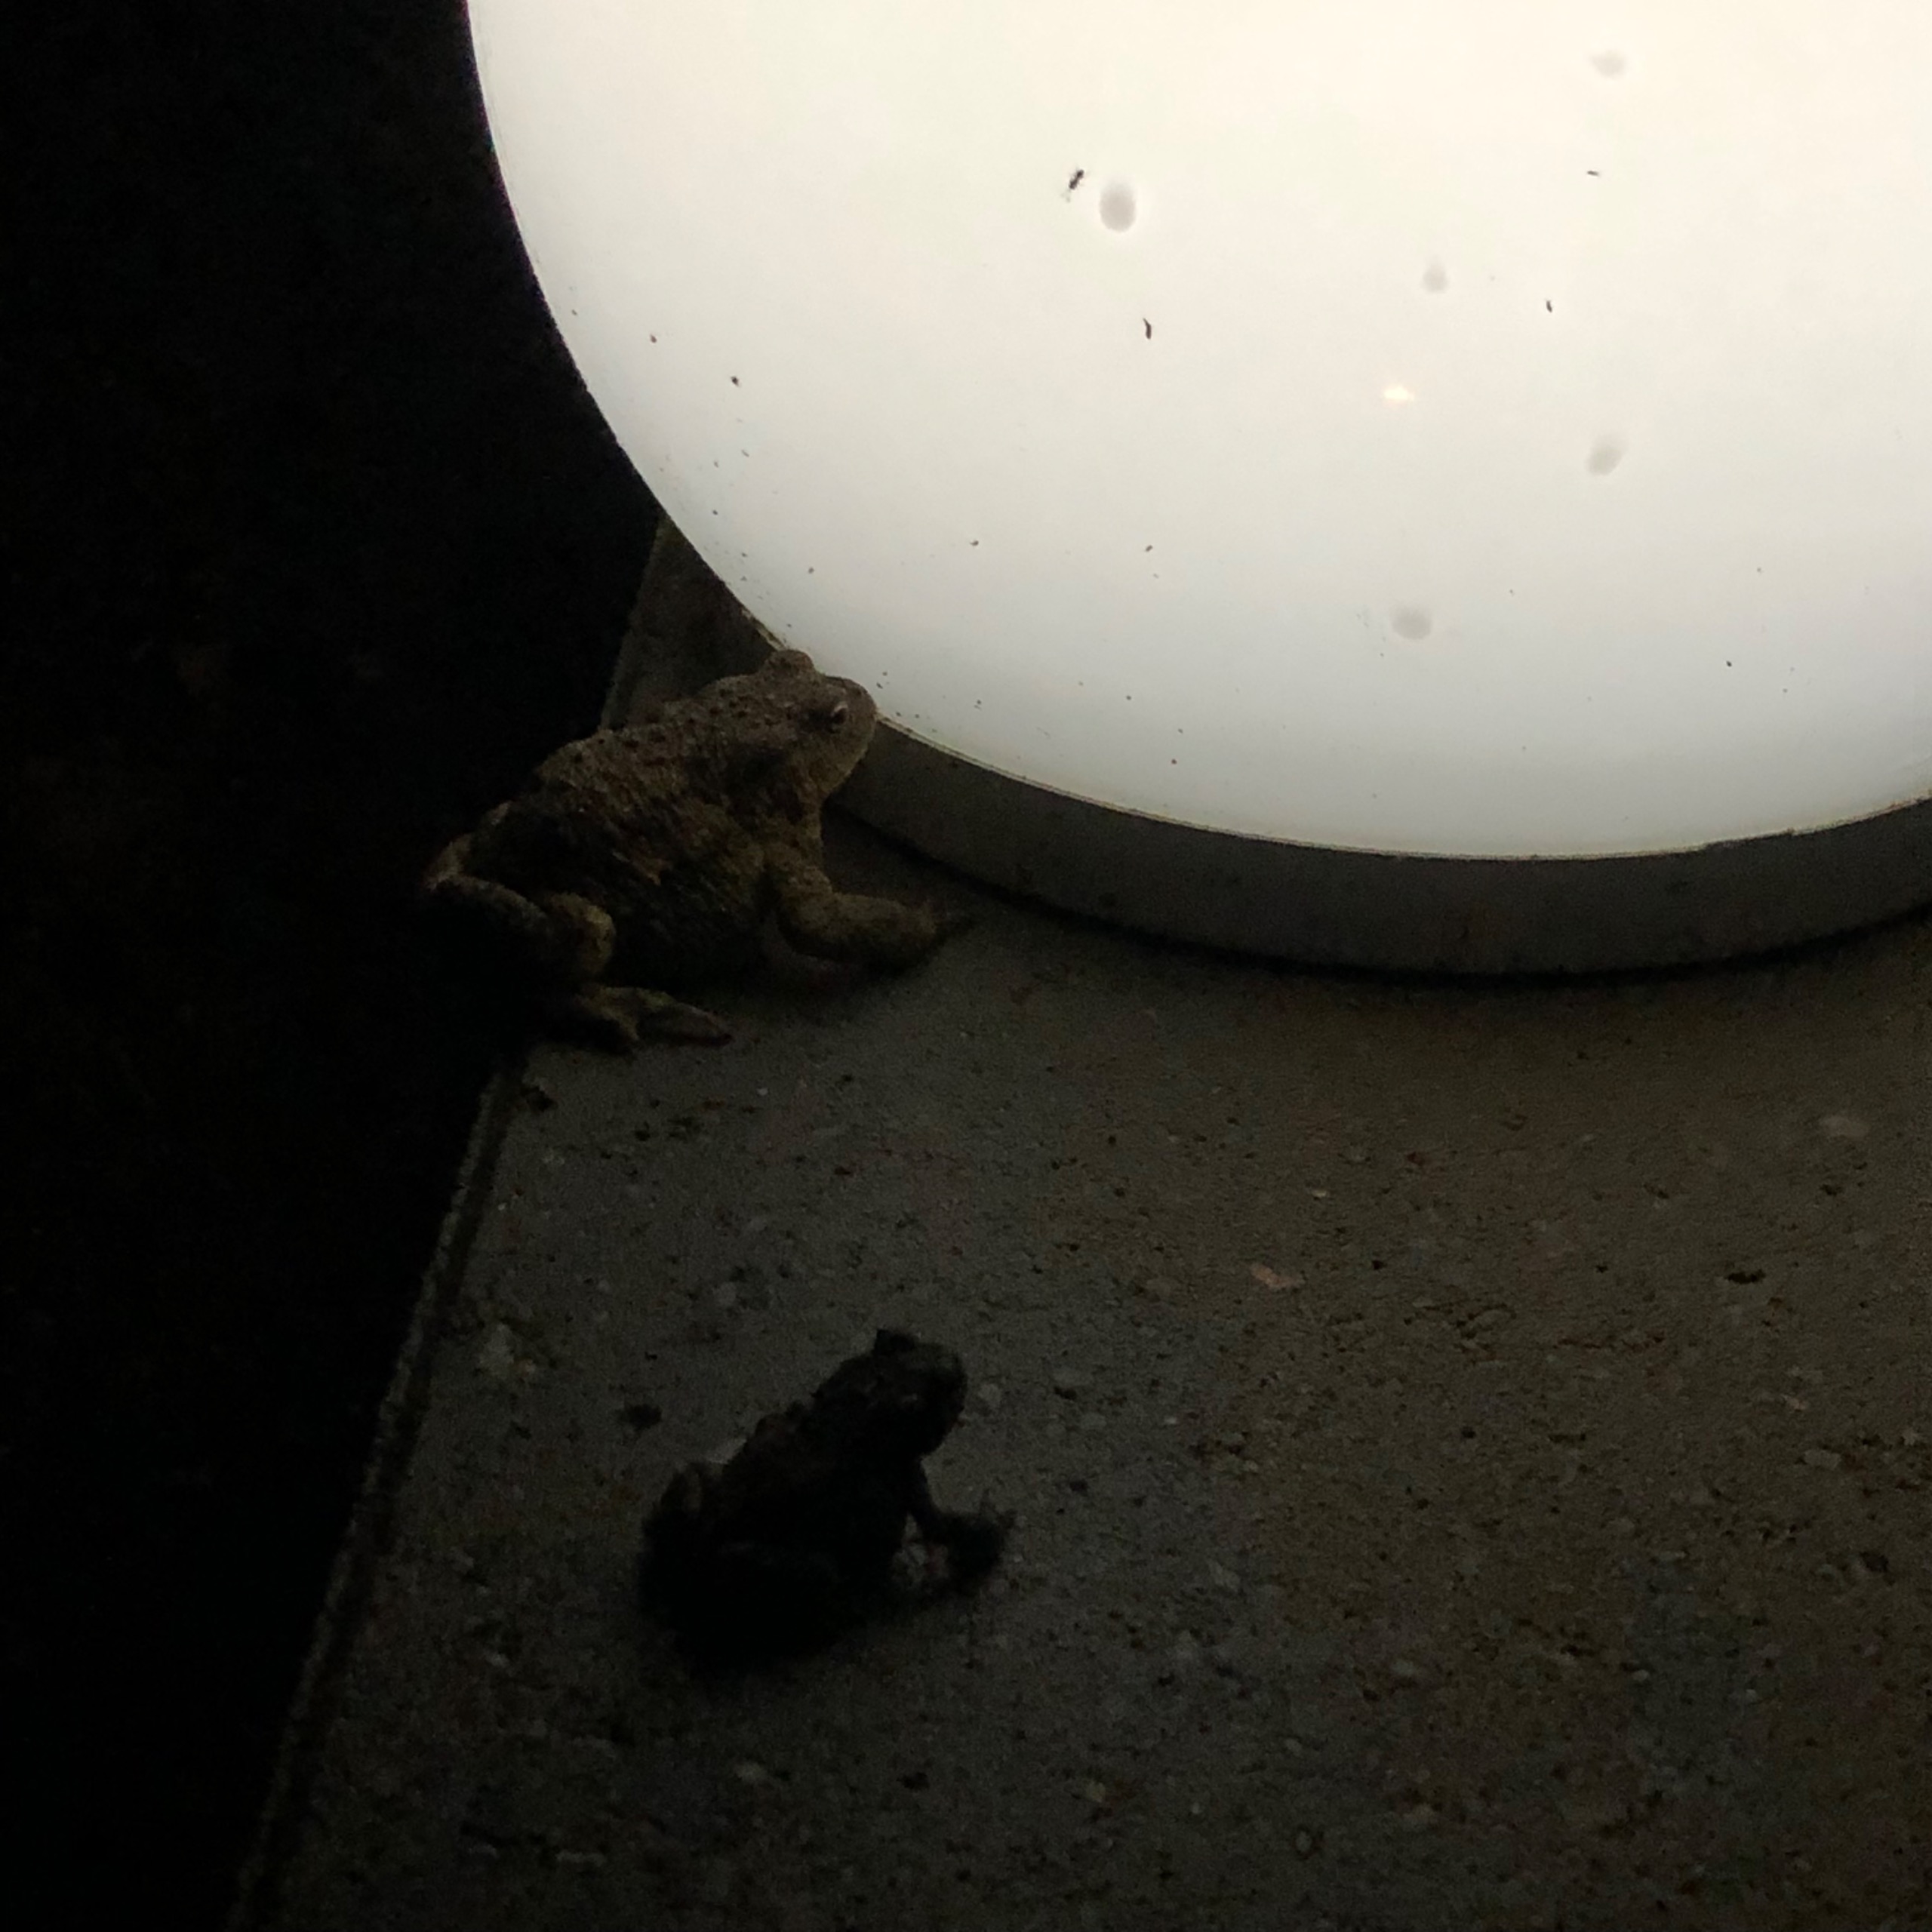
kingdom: Animalia
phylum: Chordata
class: Amphibia
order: Anura
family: Bufonidae
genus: Bufo
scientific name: Bufo bufo
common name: Skrubtudse
